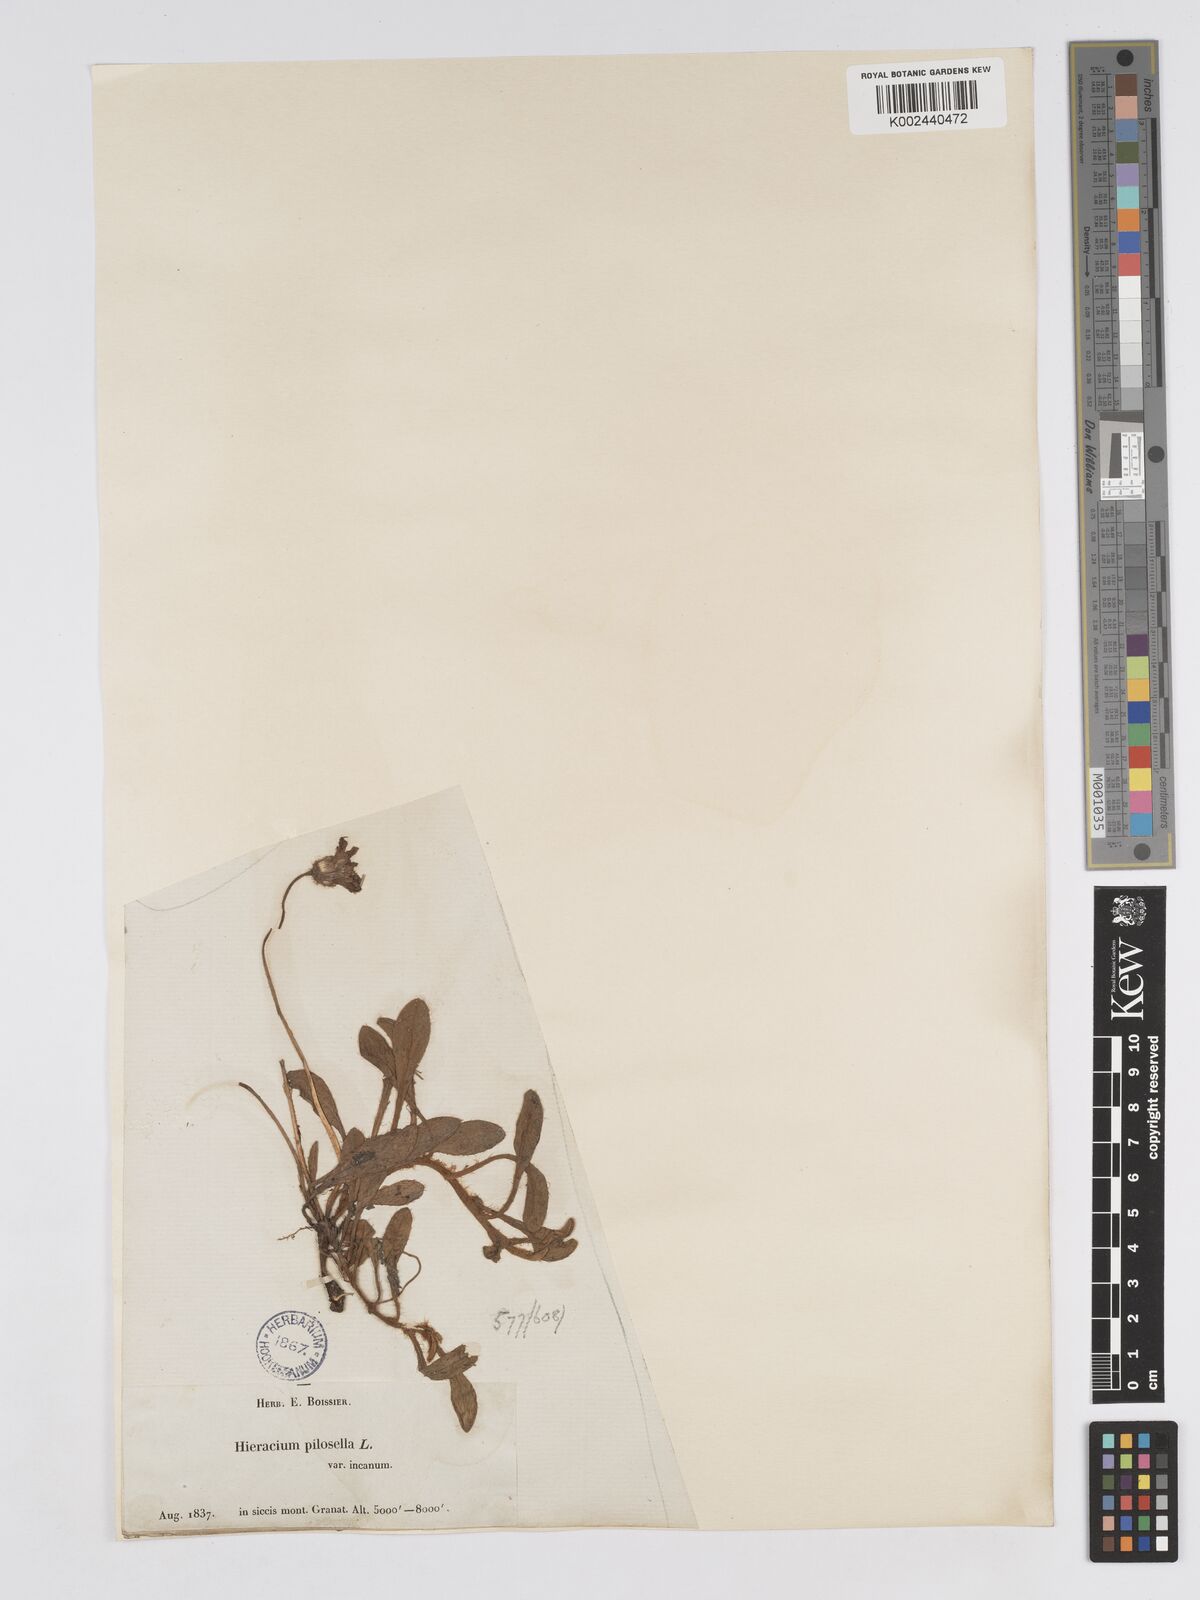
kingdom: Plantae
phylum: Tracheophyta
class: Magnoliopsida
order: Asterales
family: Asteraceae
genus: Pilosella
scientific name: Pilosella velutina
